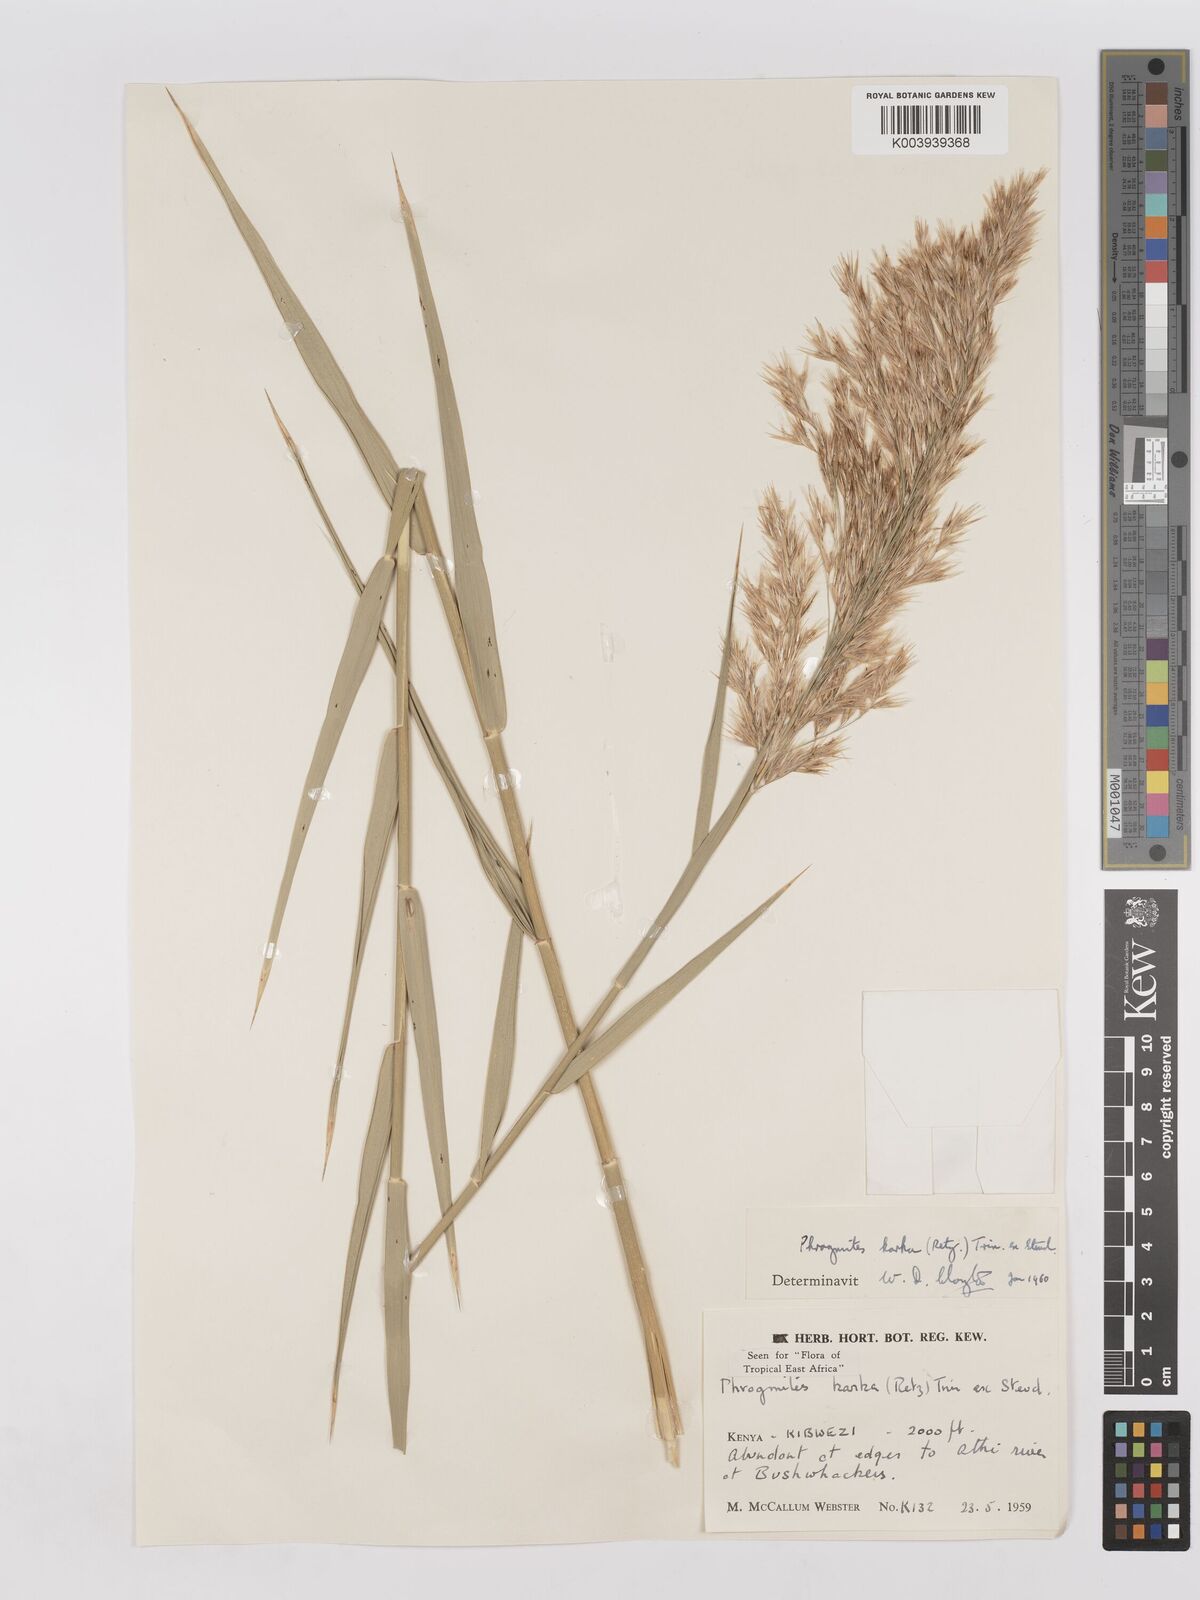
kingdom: Plantae
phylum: Tracheophyta
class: Liliopsida
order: Poales
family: Poaceae
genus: Phragmites
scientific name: Phragmites karka
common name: Tropical reed
